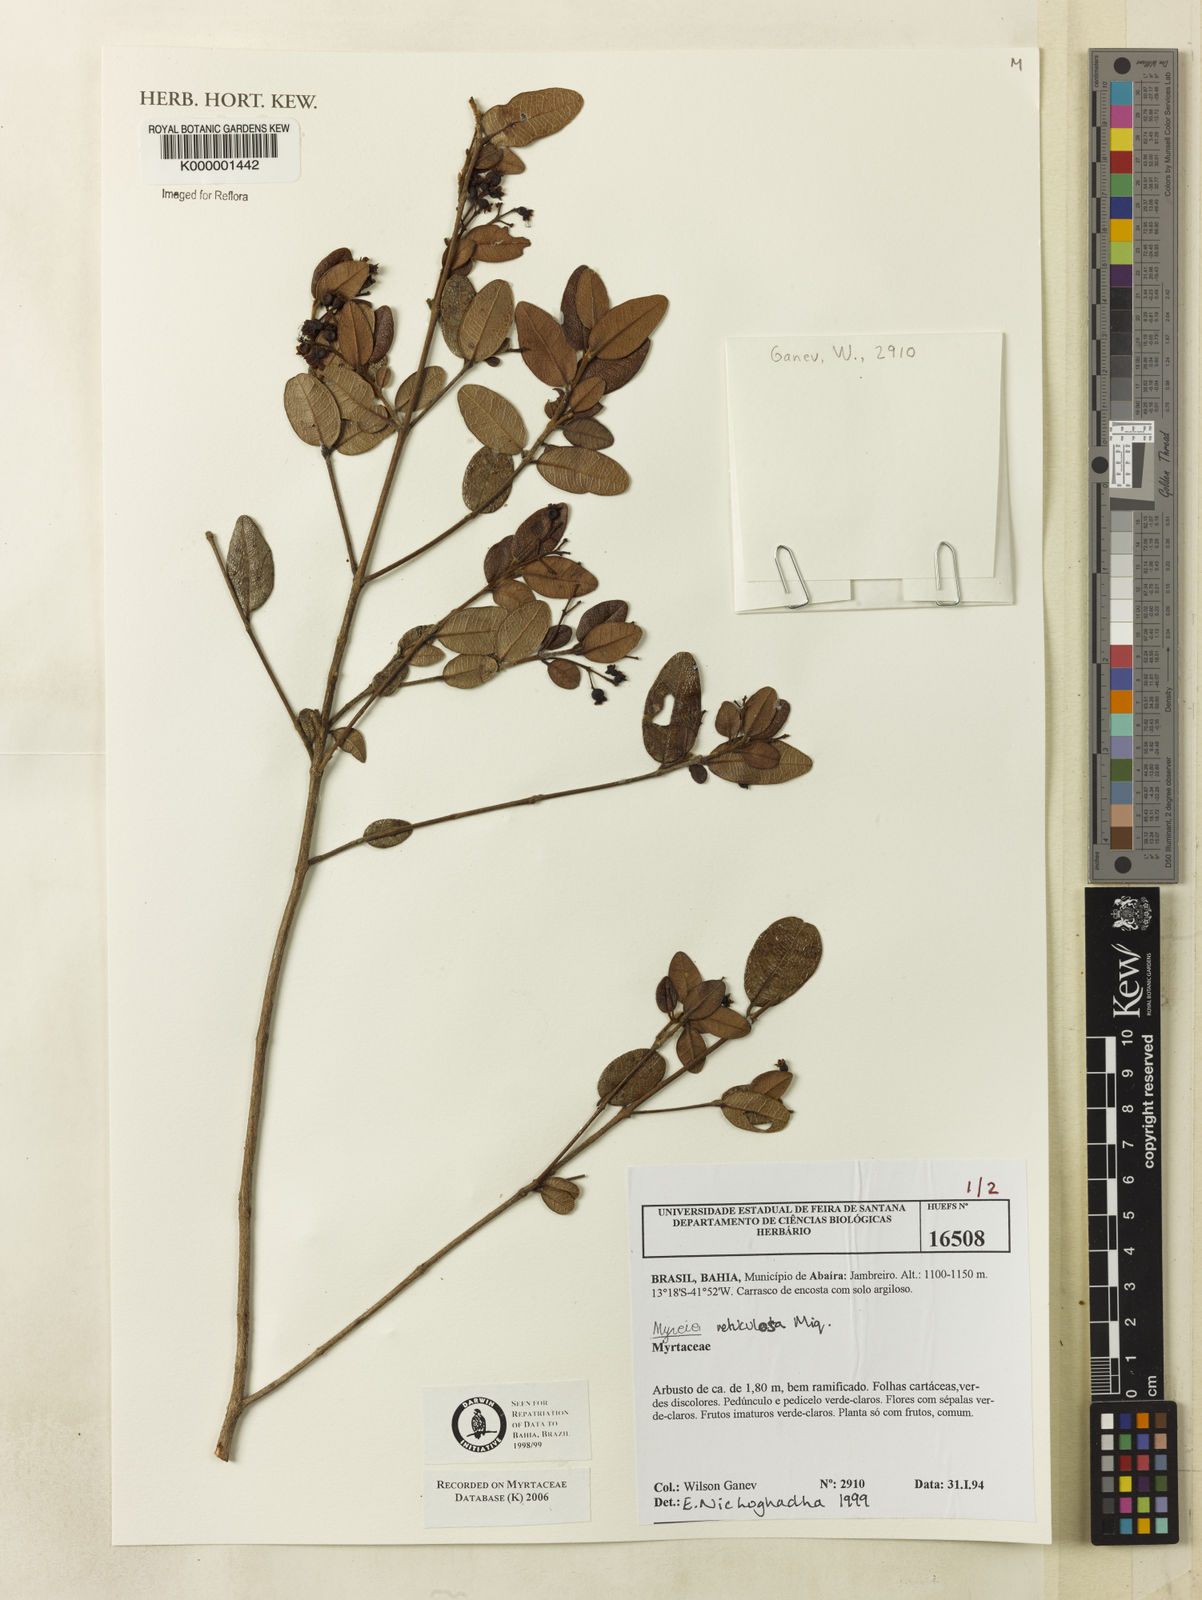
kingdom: Plantae
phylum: Tracheophyta
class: Magnoliopsida
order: Myrtales
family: Myrtaceae
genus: Myrcia
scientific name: Myrcia reticulosa
